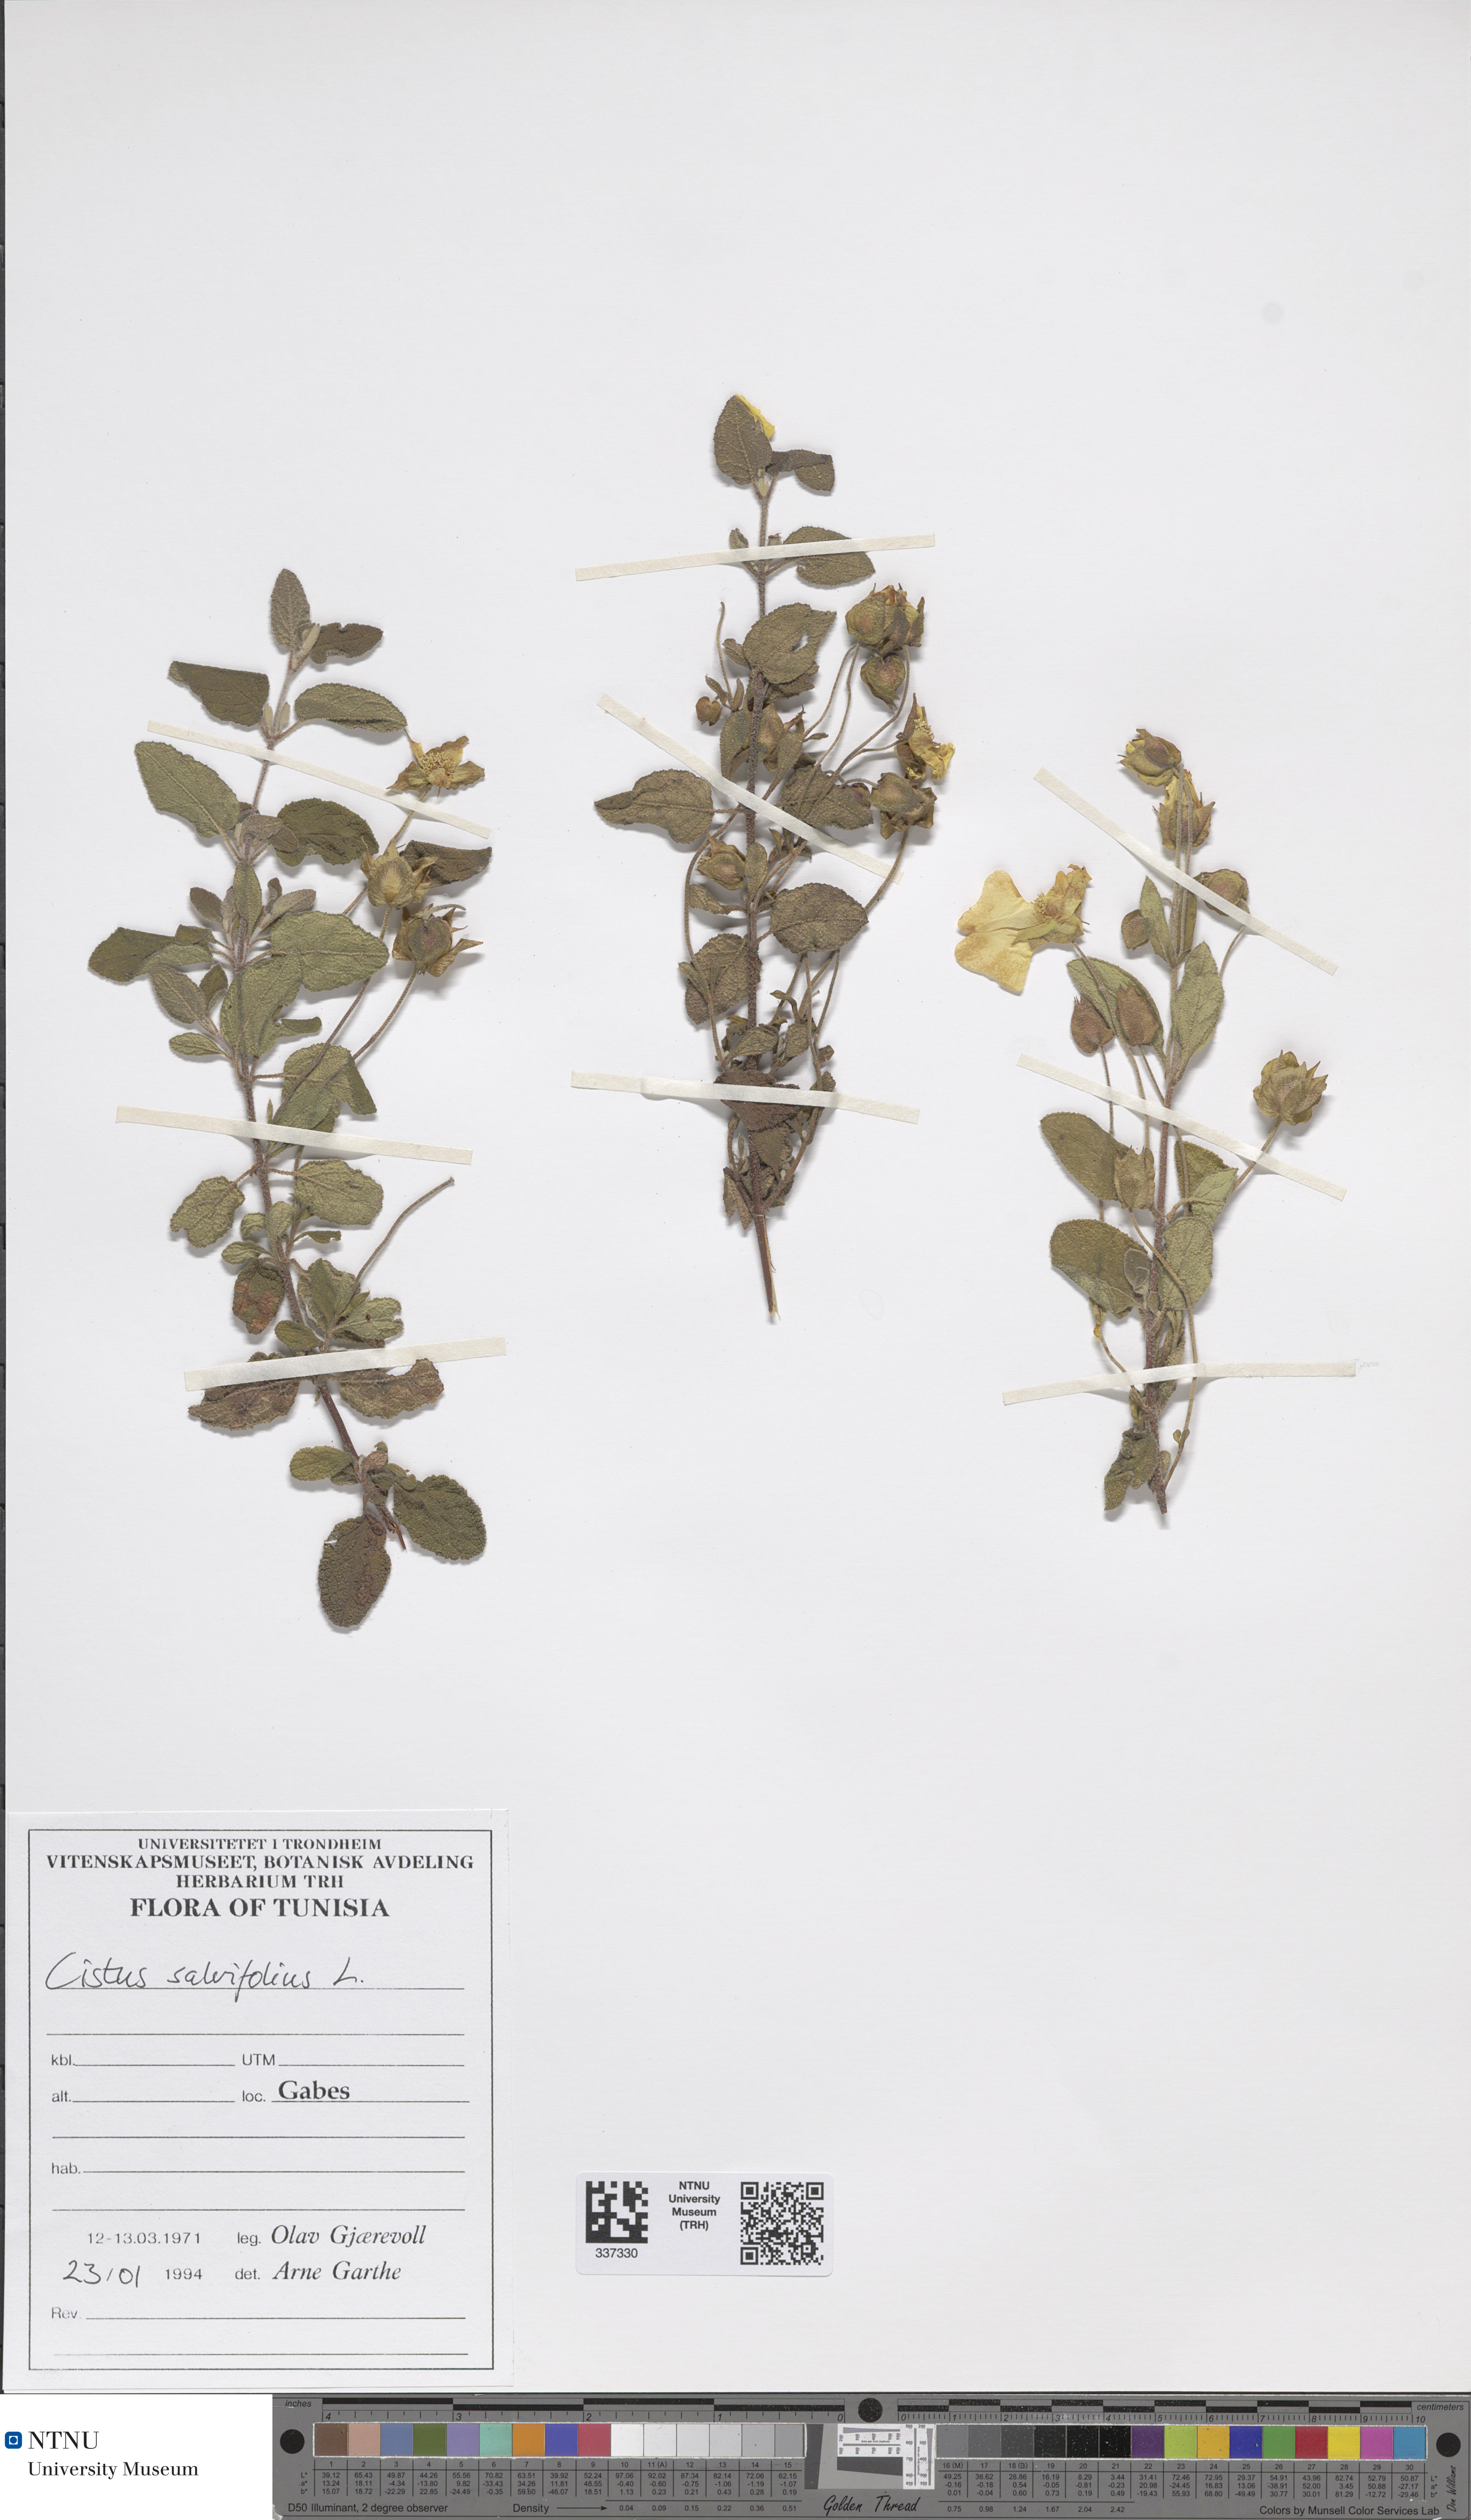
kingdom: Plantae
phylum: Tracheophyta
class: Magnoliopsida
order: Malvales
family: Cistaceae
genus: Cistus
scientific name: Cistus salviifolius
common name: Salvia cistus
